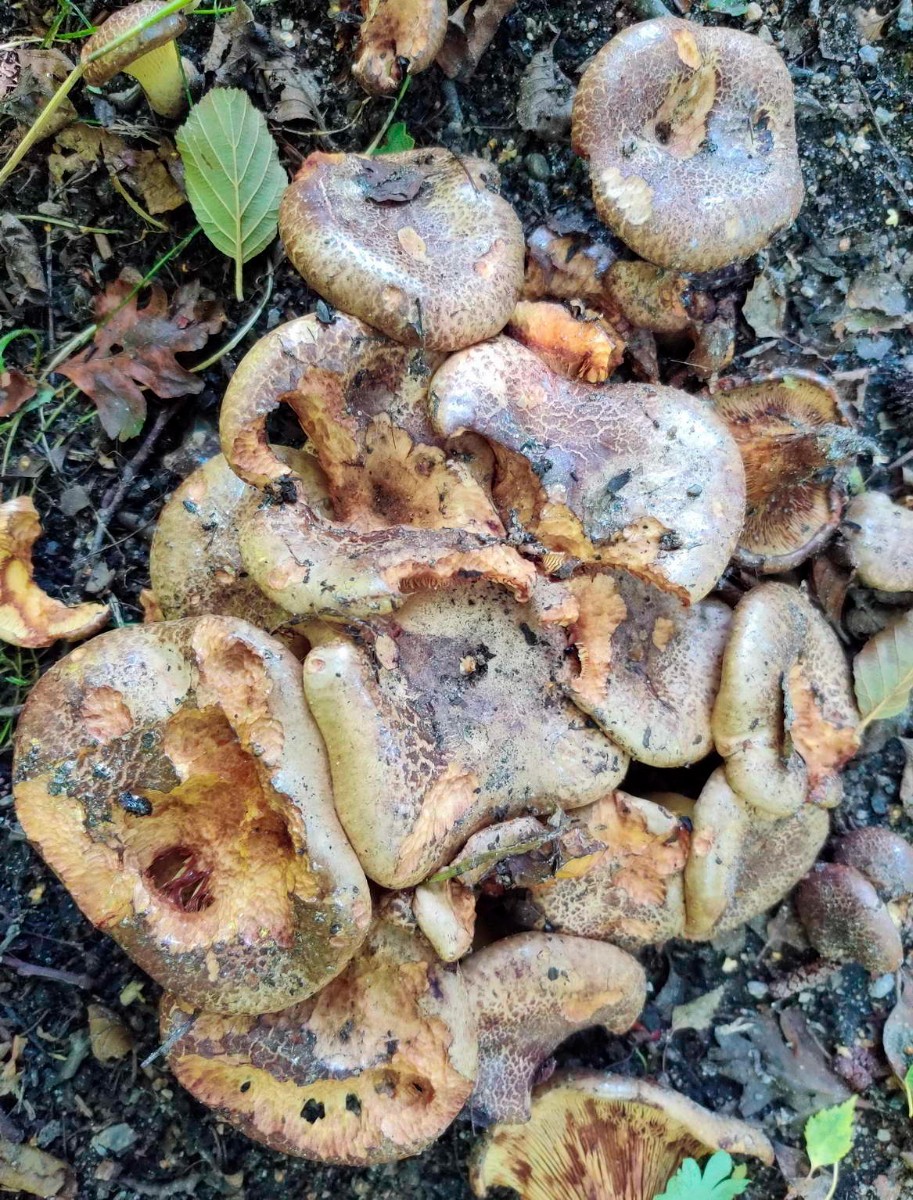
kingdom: Fungi
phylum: Basidiomycota
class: Agaricomycetes
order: Boletales
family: Paxillaceae
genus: Paxillus
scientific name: Paxillus rubicundulus
